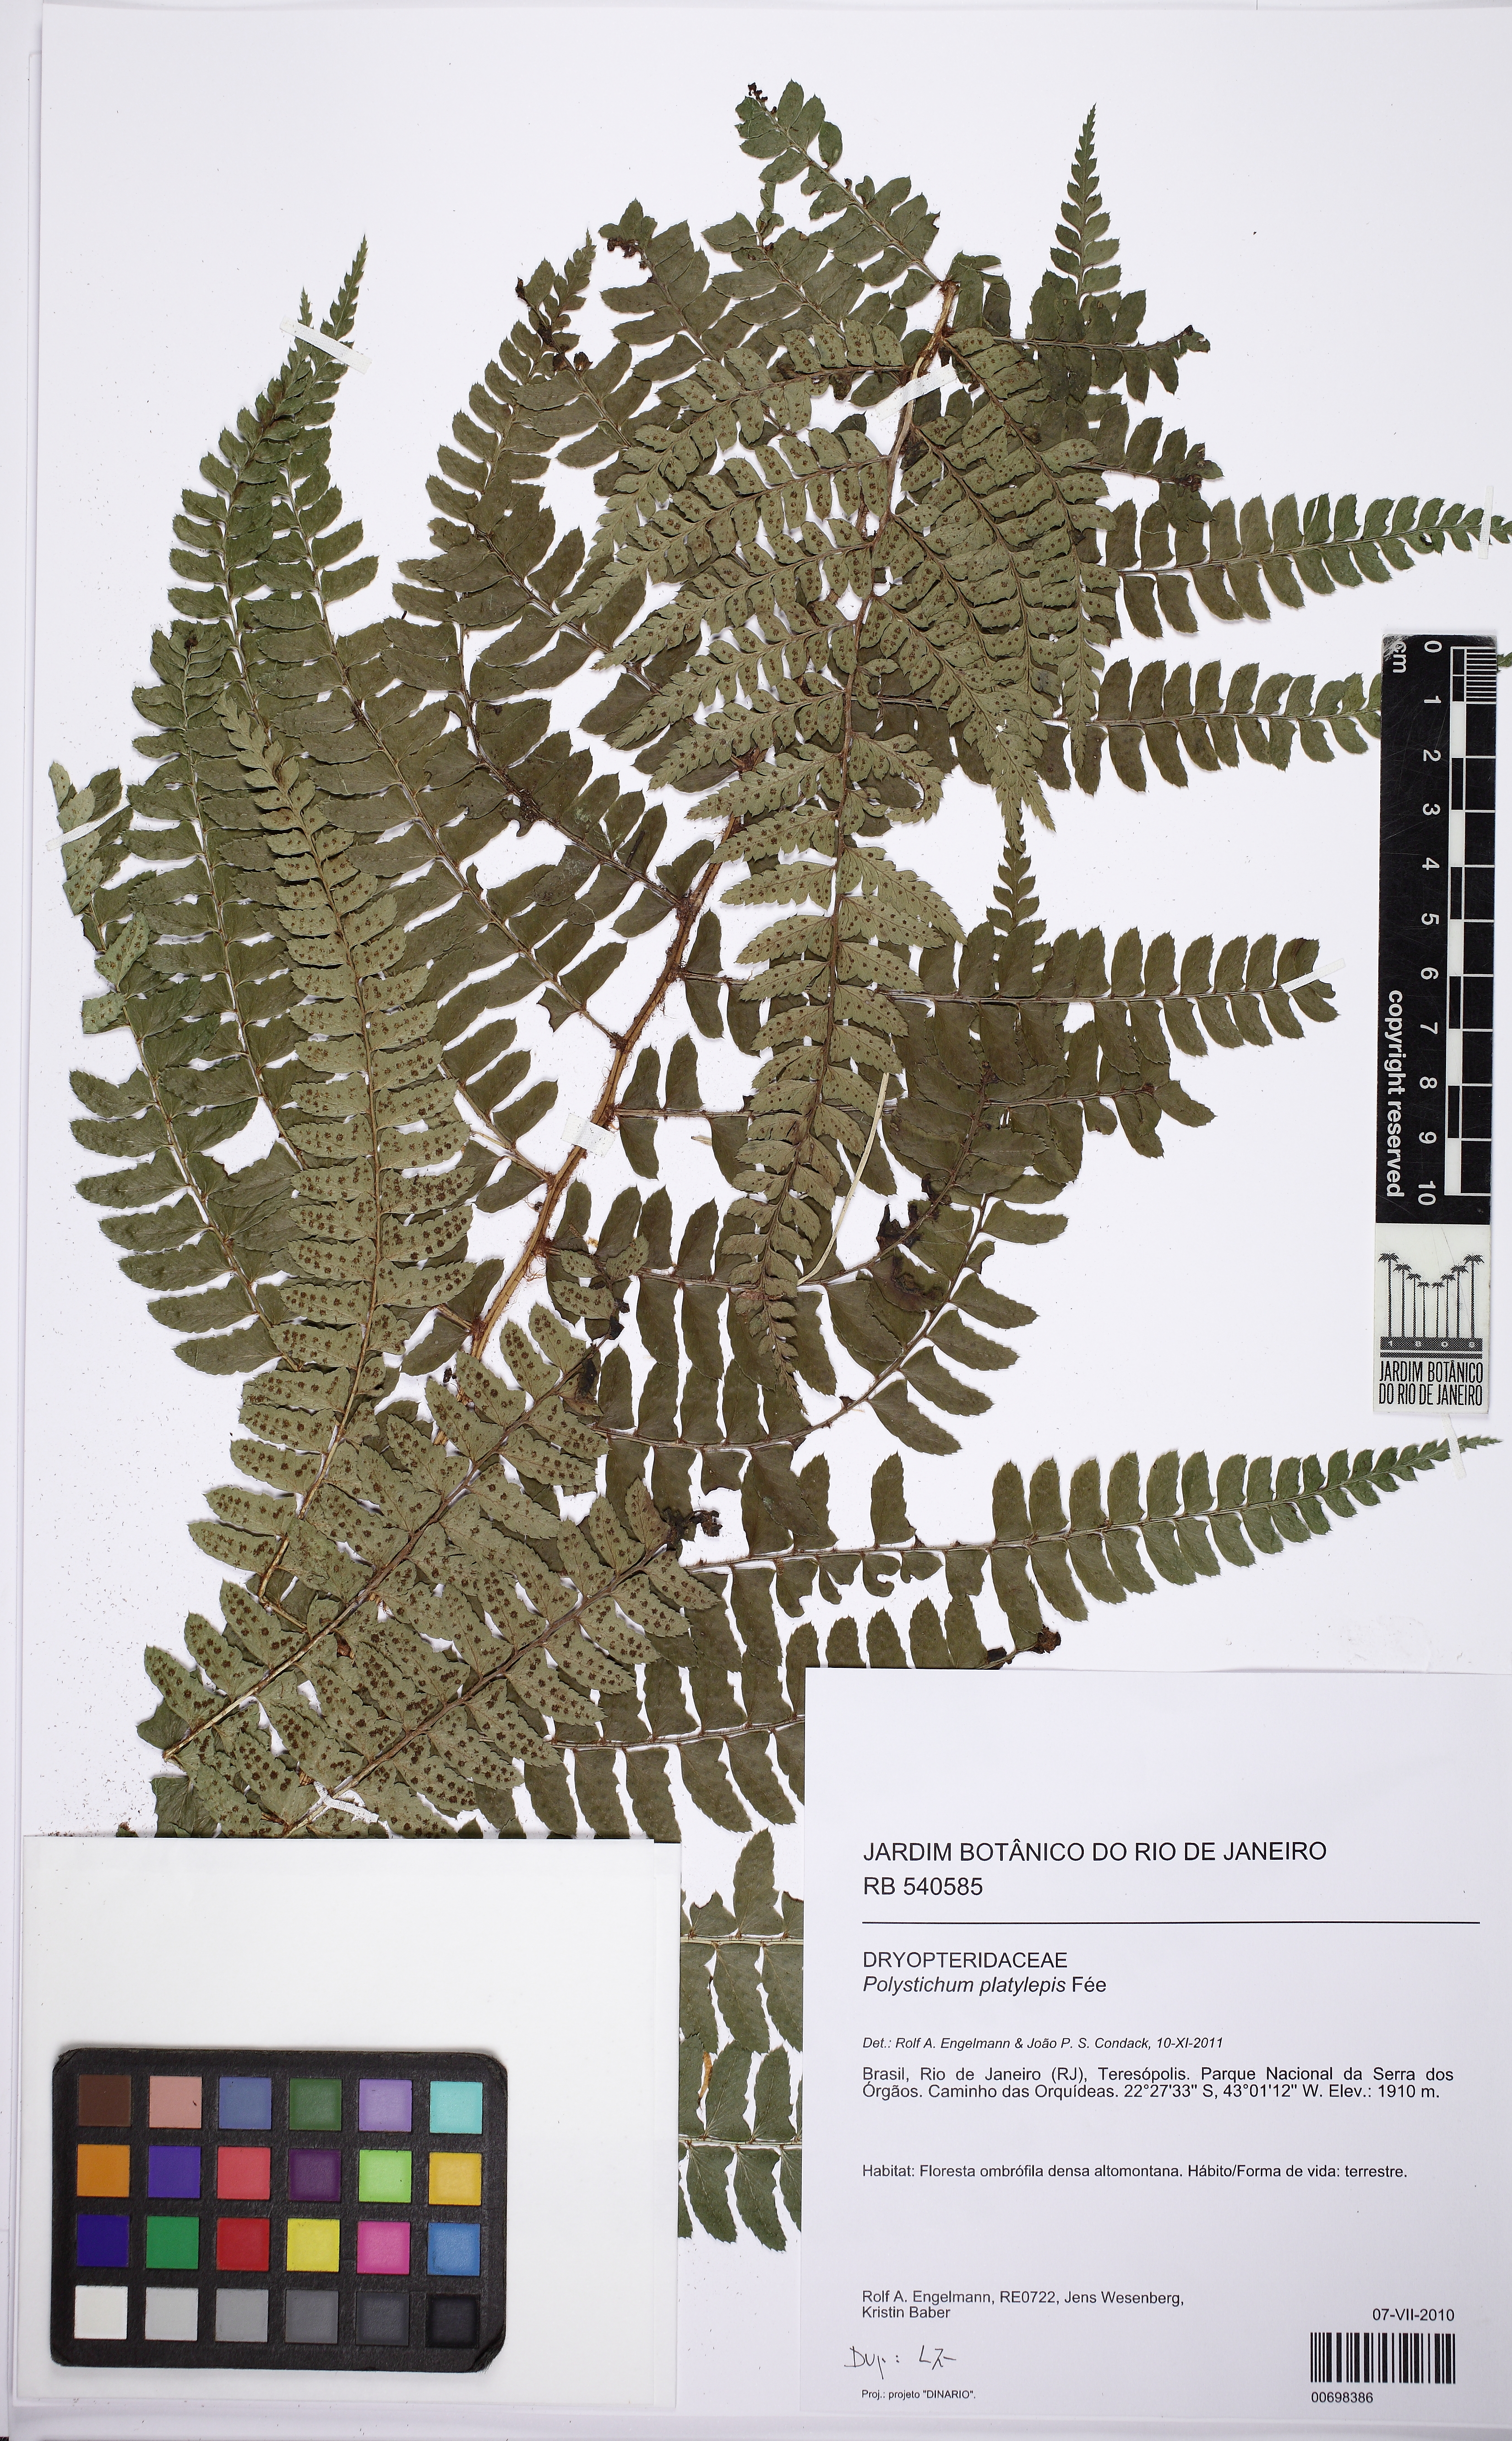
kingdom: Plantae
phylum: Tracheophyta
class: Polypodiopsida
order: Polypodiales
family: Dryopteridaceae
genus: Polystichum
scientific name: Polystichum platylepis
